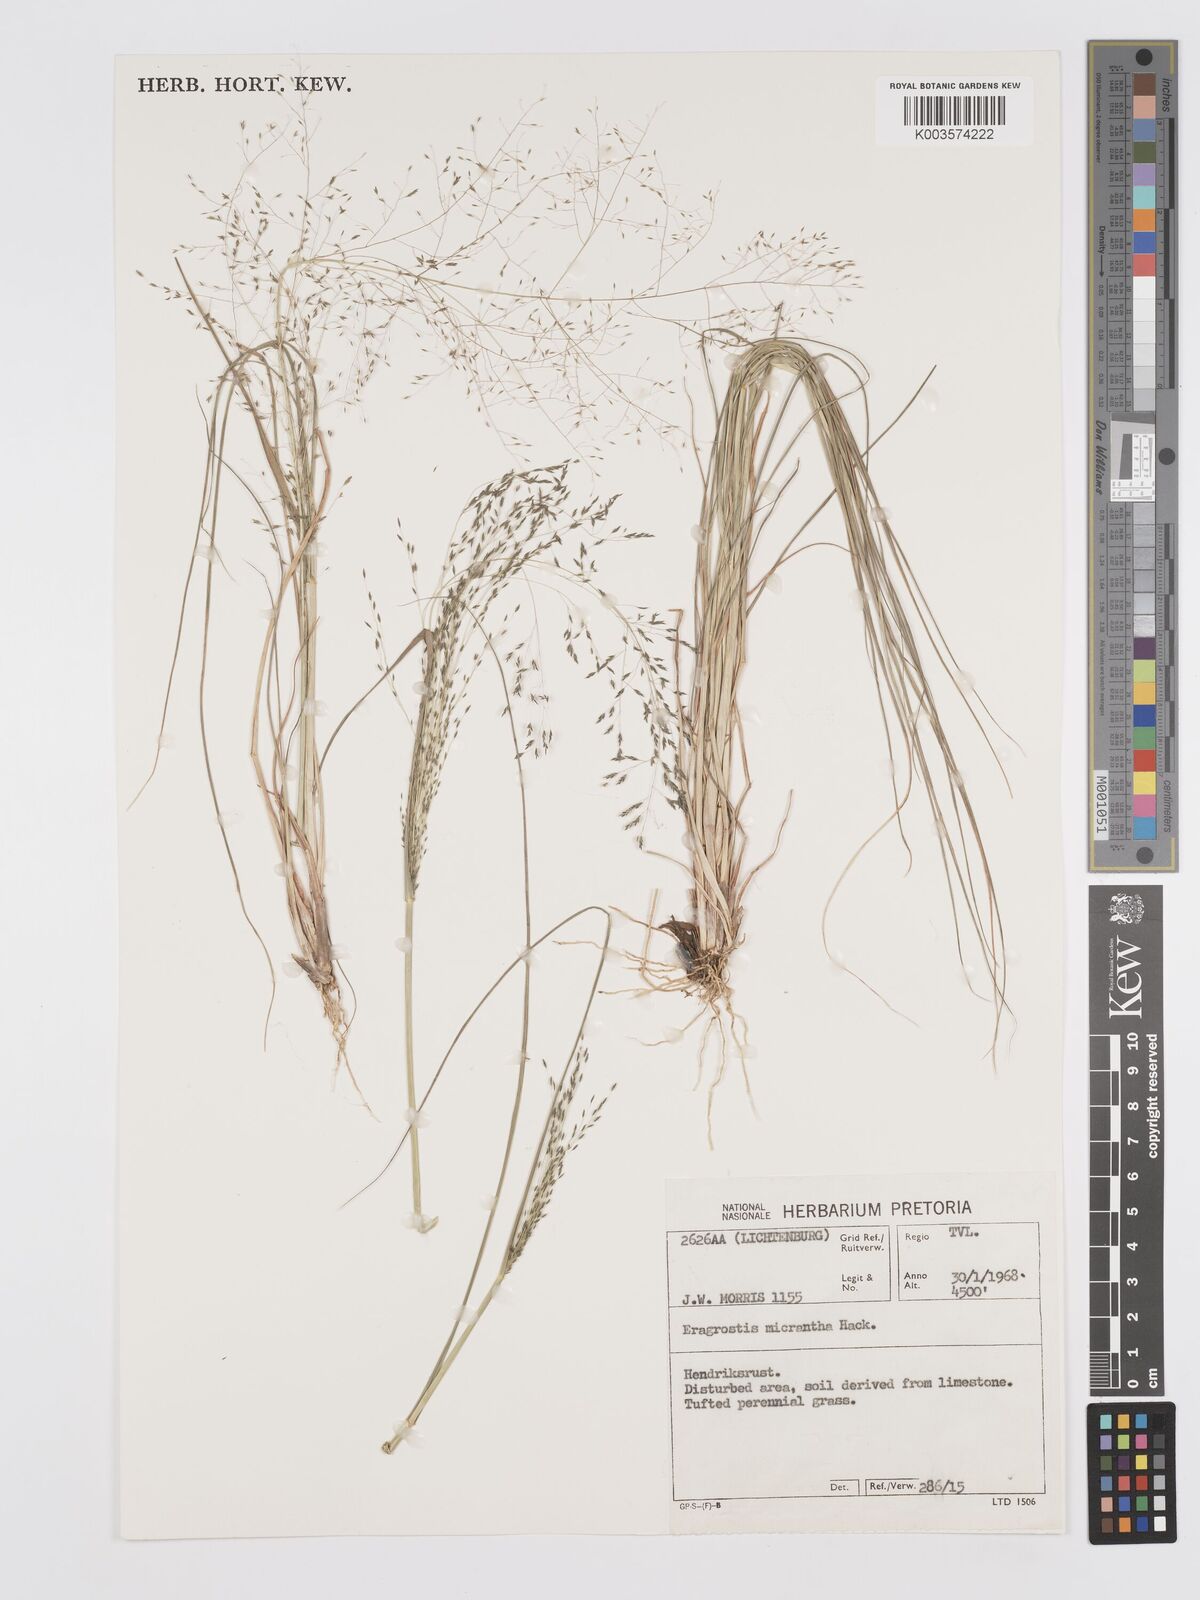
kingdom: Plantae
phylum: Tracheophyta
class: Liliopsida
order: Poales
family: Poaceae
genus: Eragrostis
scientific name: Eragrostis micrantha
